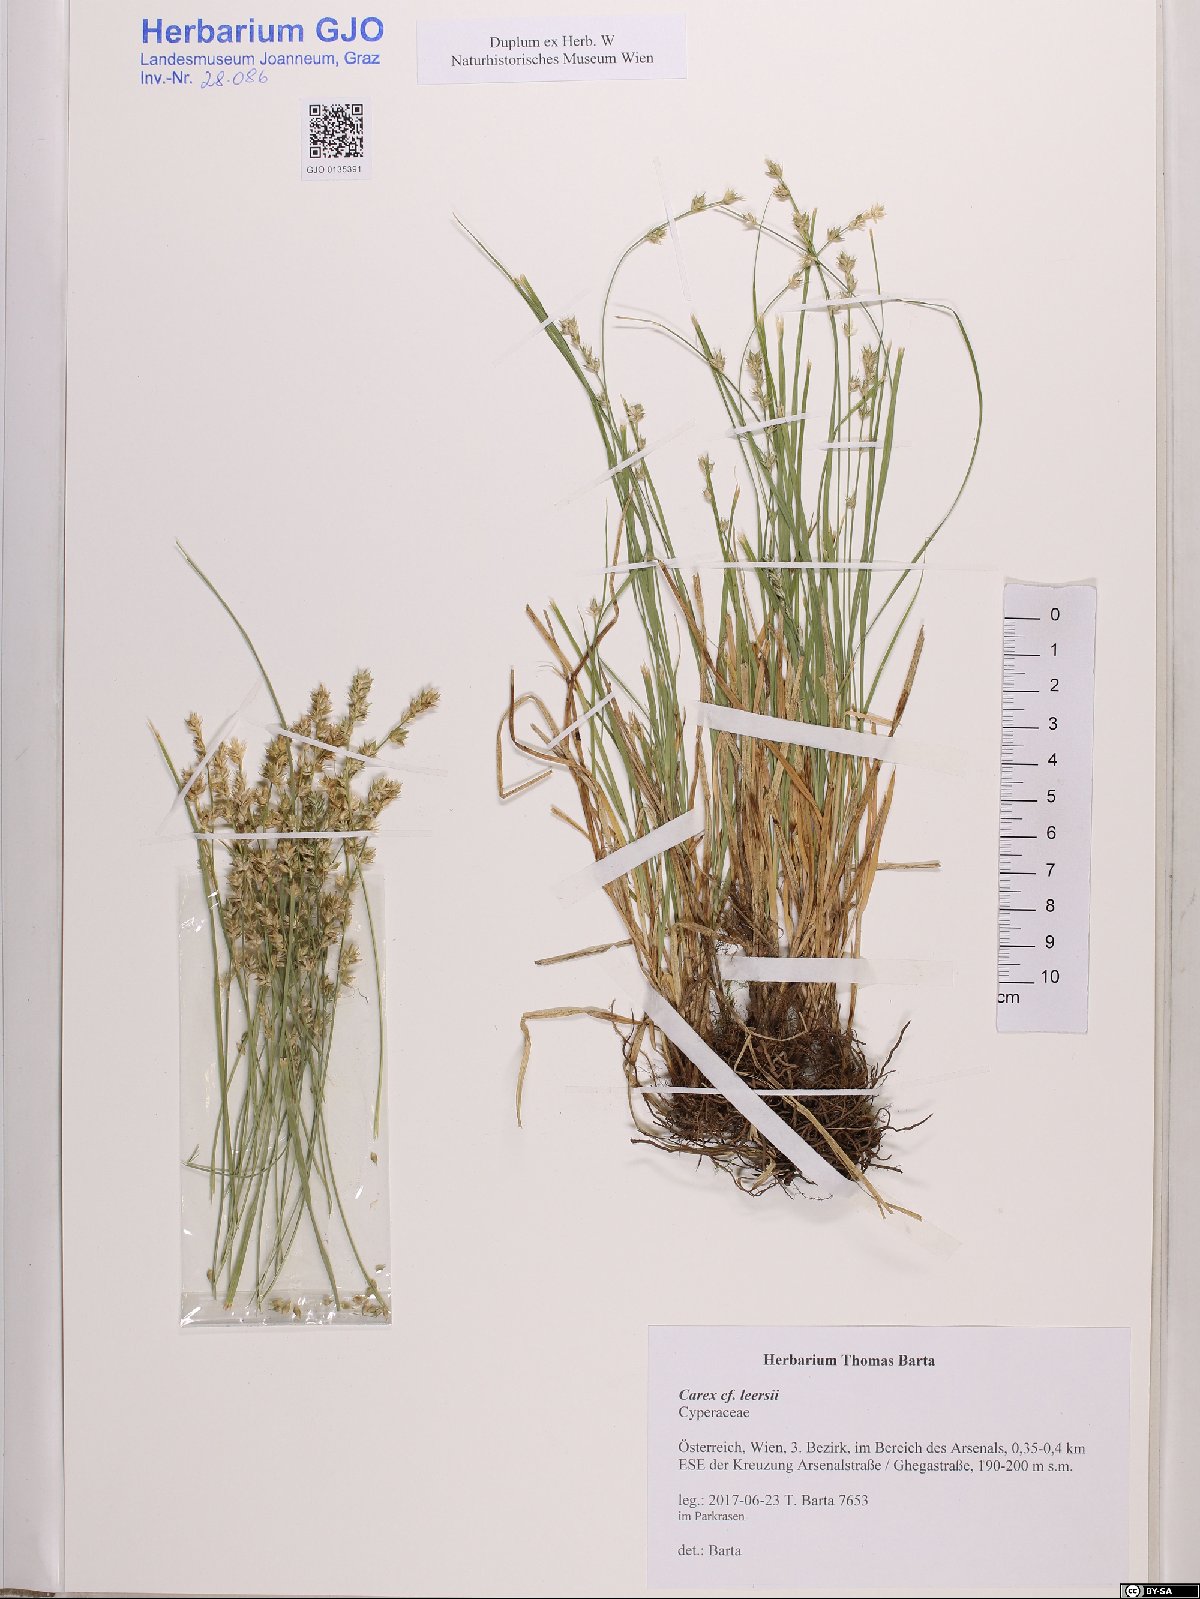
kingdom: Plantae
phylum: Tracheophyta
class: Liliopsida
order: Poales
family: Cyperaceae
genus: Carex
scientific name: Carex leersii
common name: Leers' sedge
